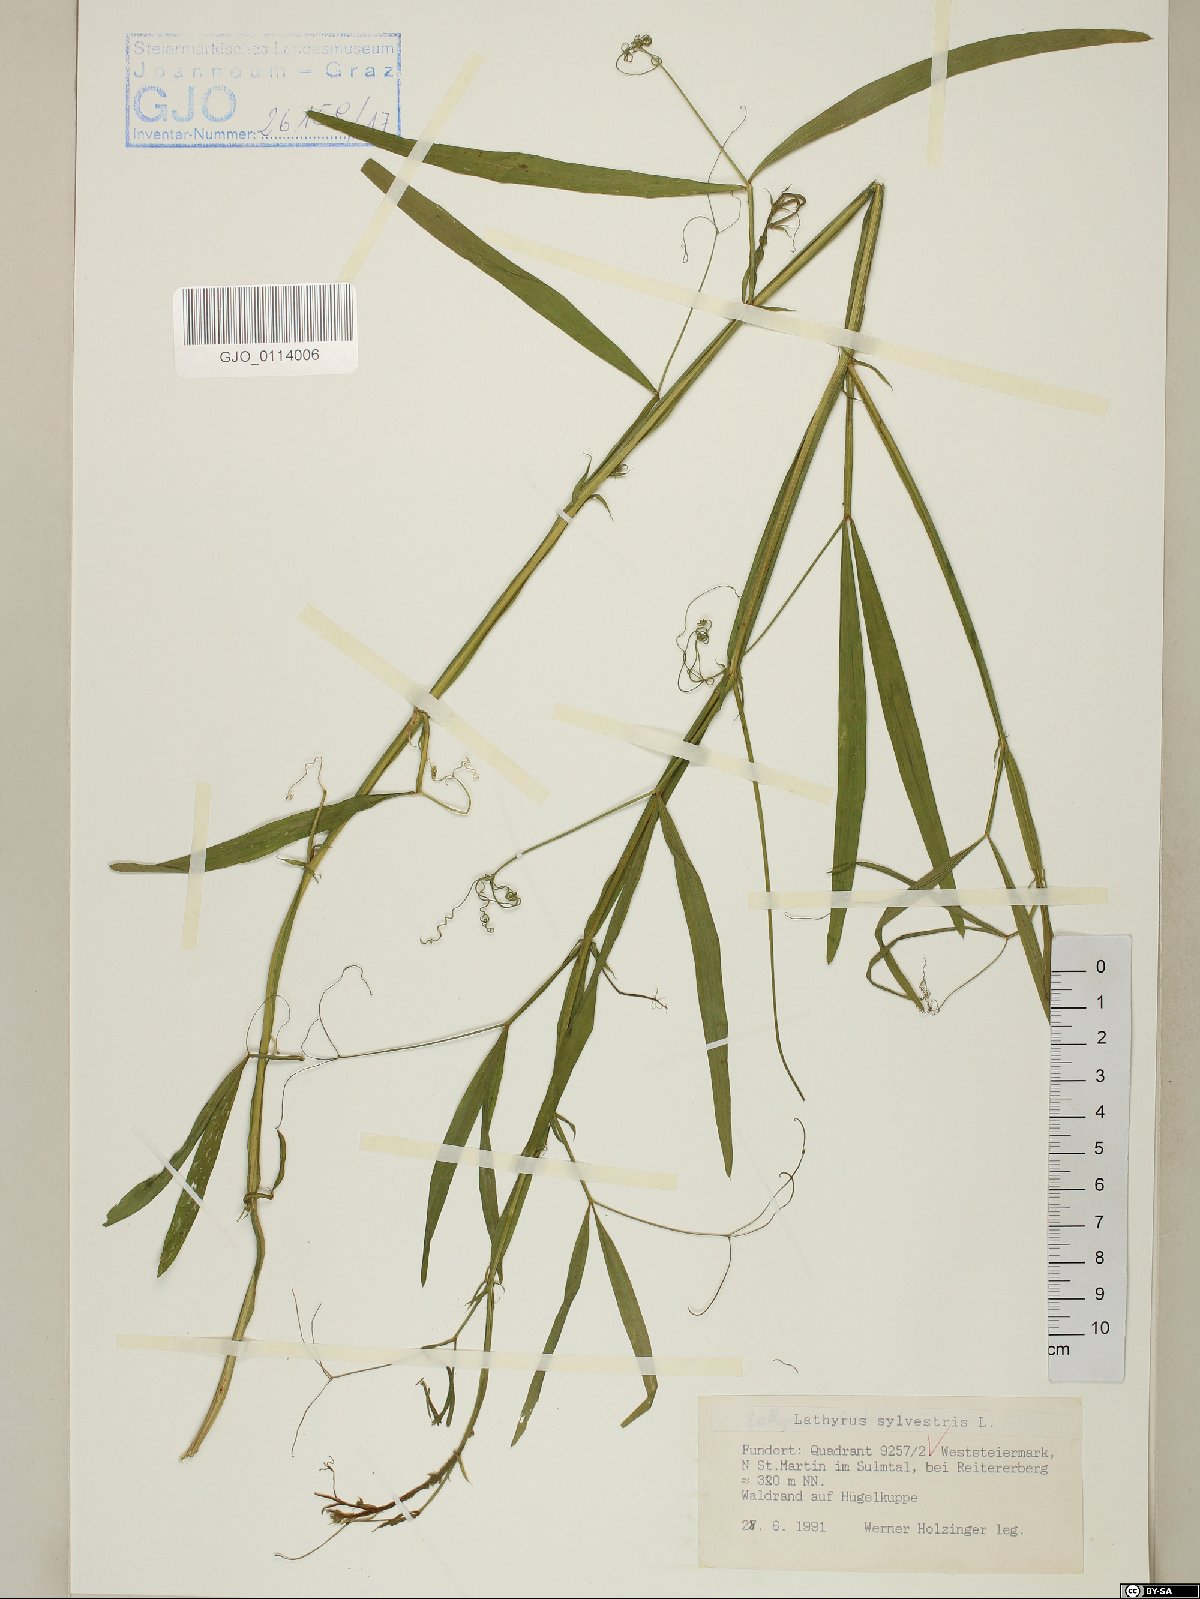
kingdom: Plantae
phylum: Tracheophyta
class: Magnoliopsida
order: Fabales
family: Fabaceae
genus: Lathyrus
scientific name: Lathyrus sylvestris
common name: Flat pea
